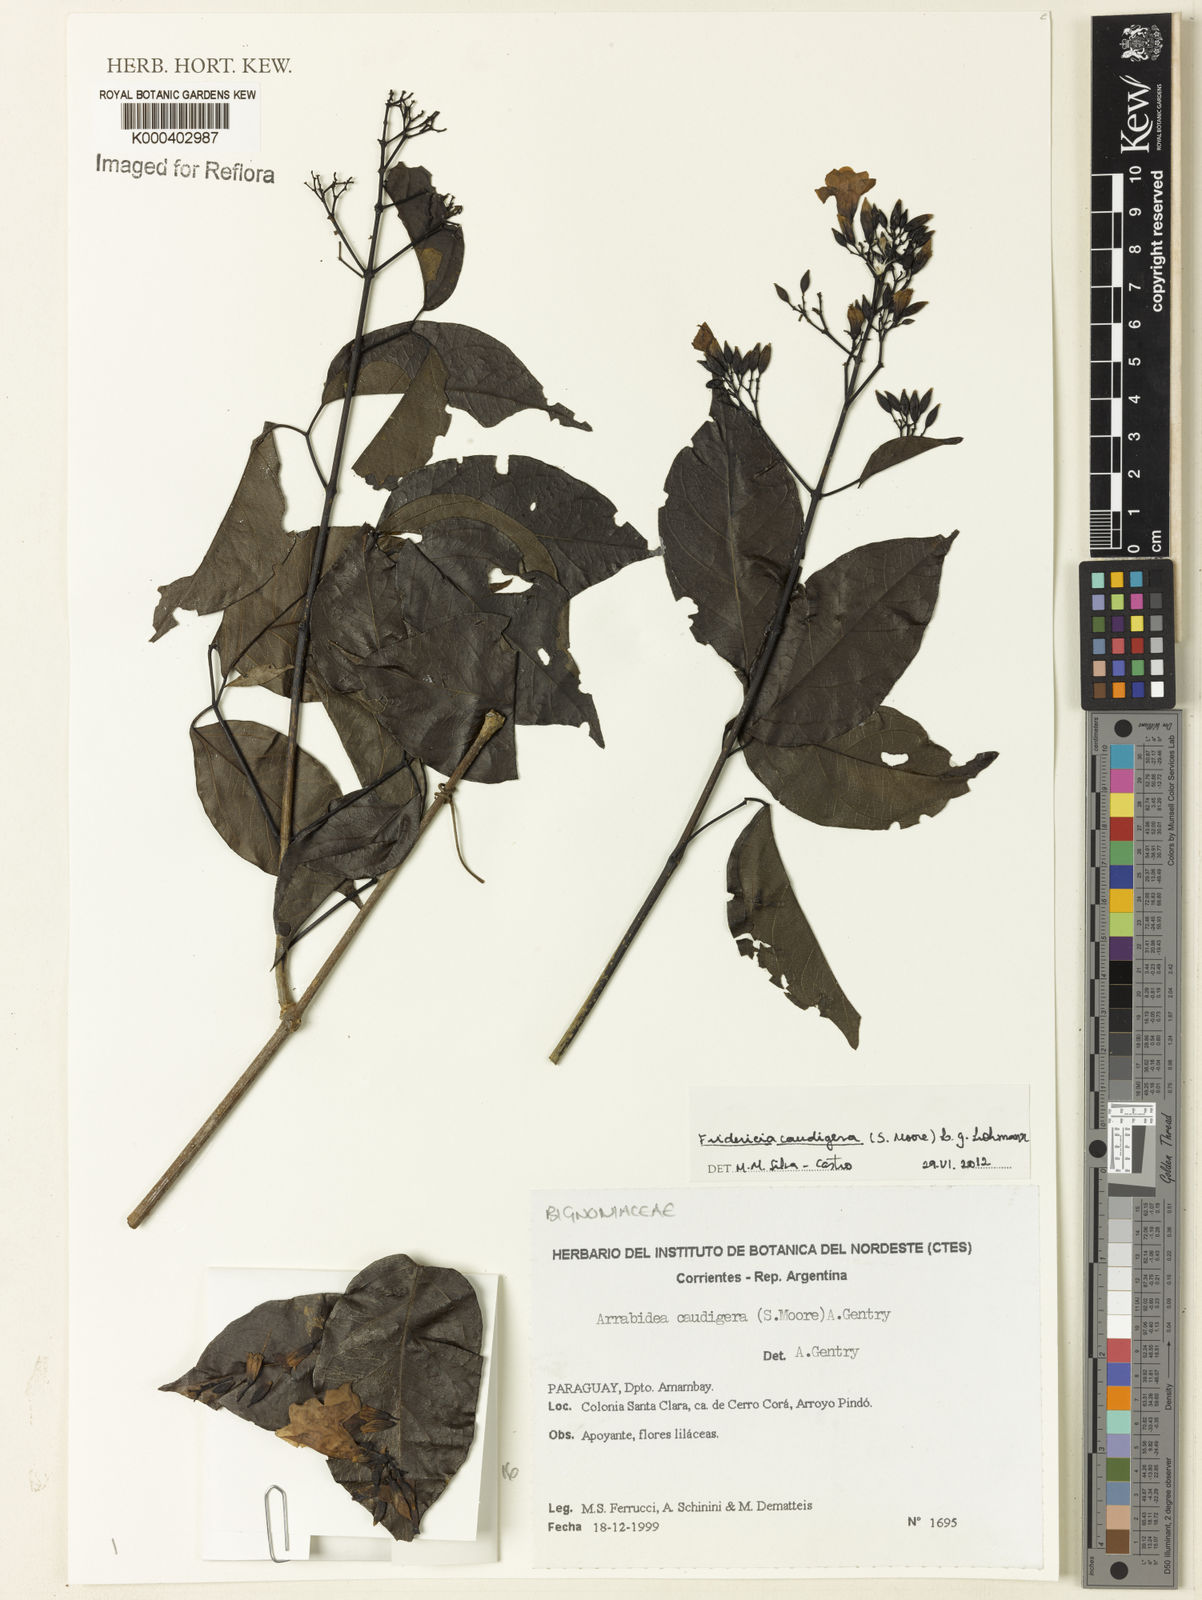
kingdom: Plantae
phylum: Tracheophyta
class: Magnoliopsida
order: Lamiales
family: Bignoniaceae
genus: Fridericia
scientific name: Fridericia caudigera
